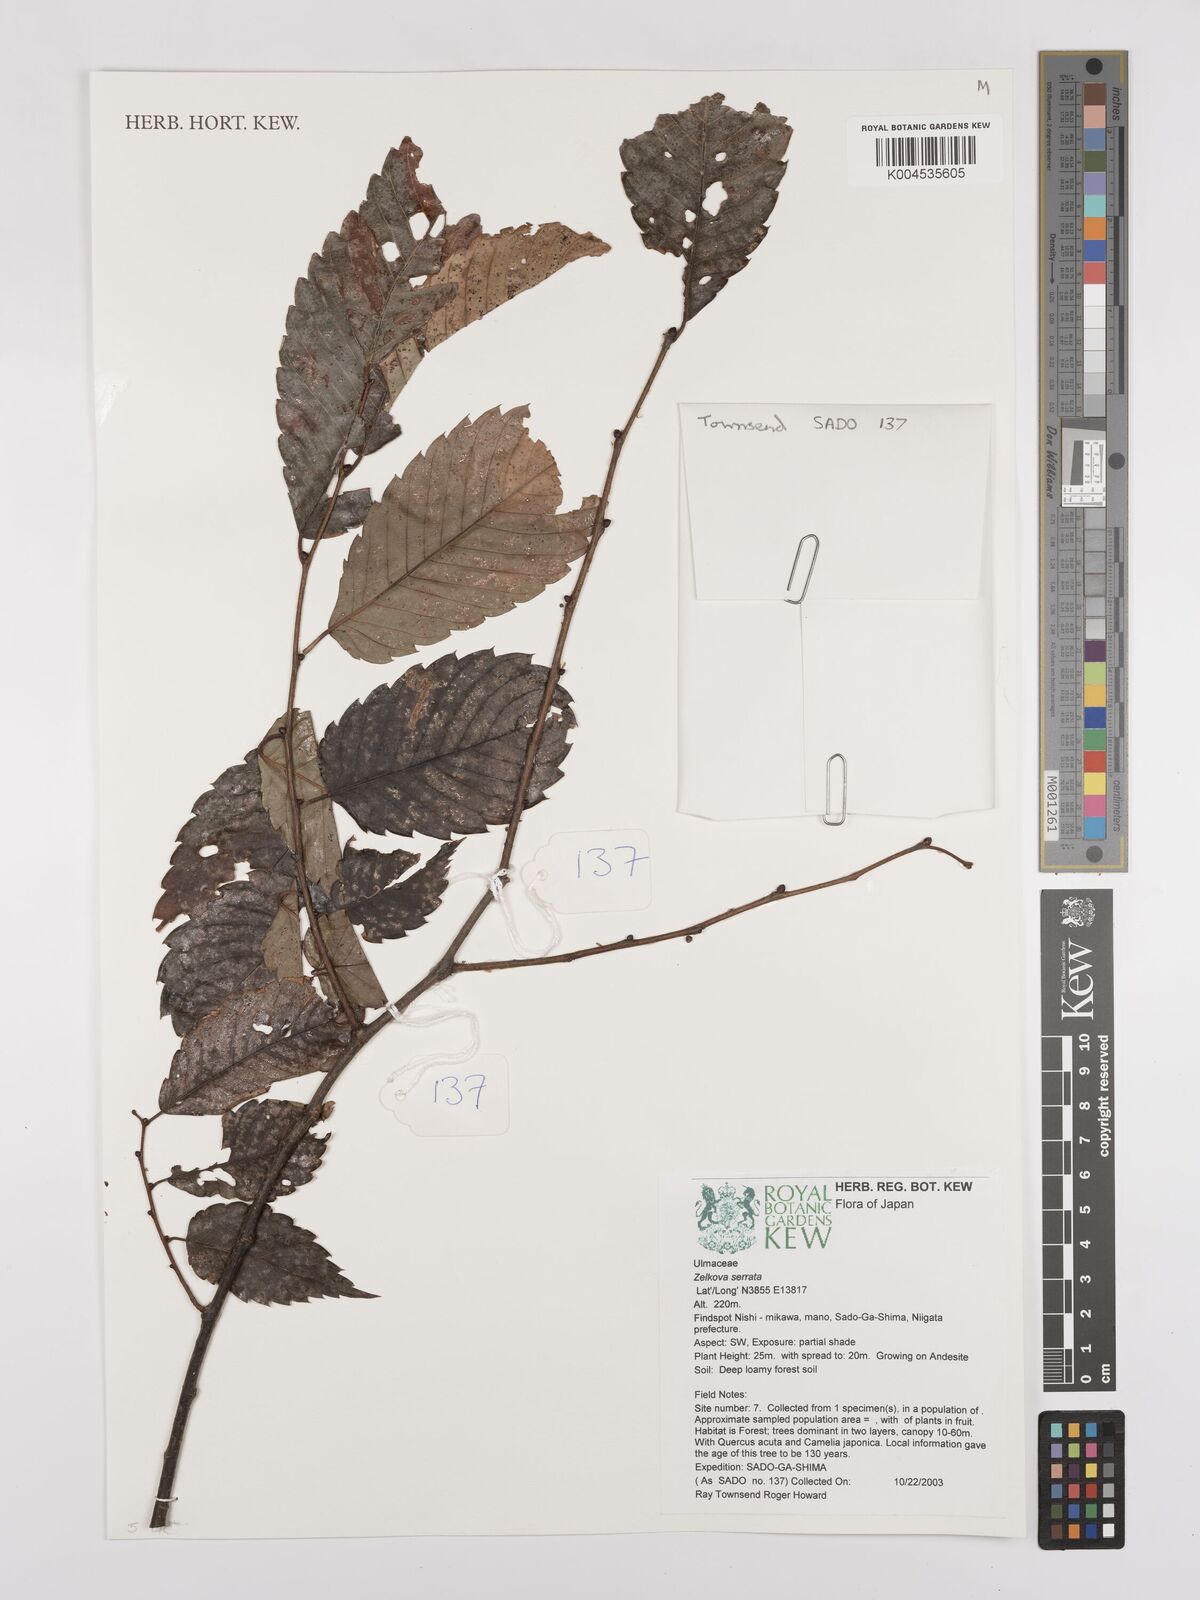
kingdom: Plantae
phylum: Tracheophyta
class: Magnoliopsida
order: Rosales
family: Ulmaceae
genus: Zelkova
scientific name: Zelkova serrata
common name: Japanese zelkova
